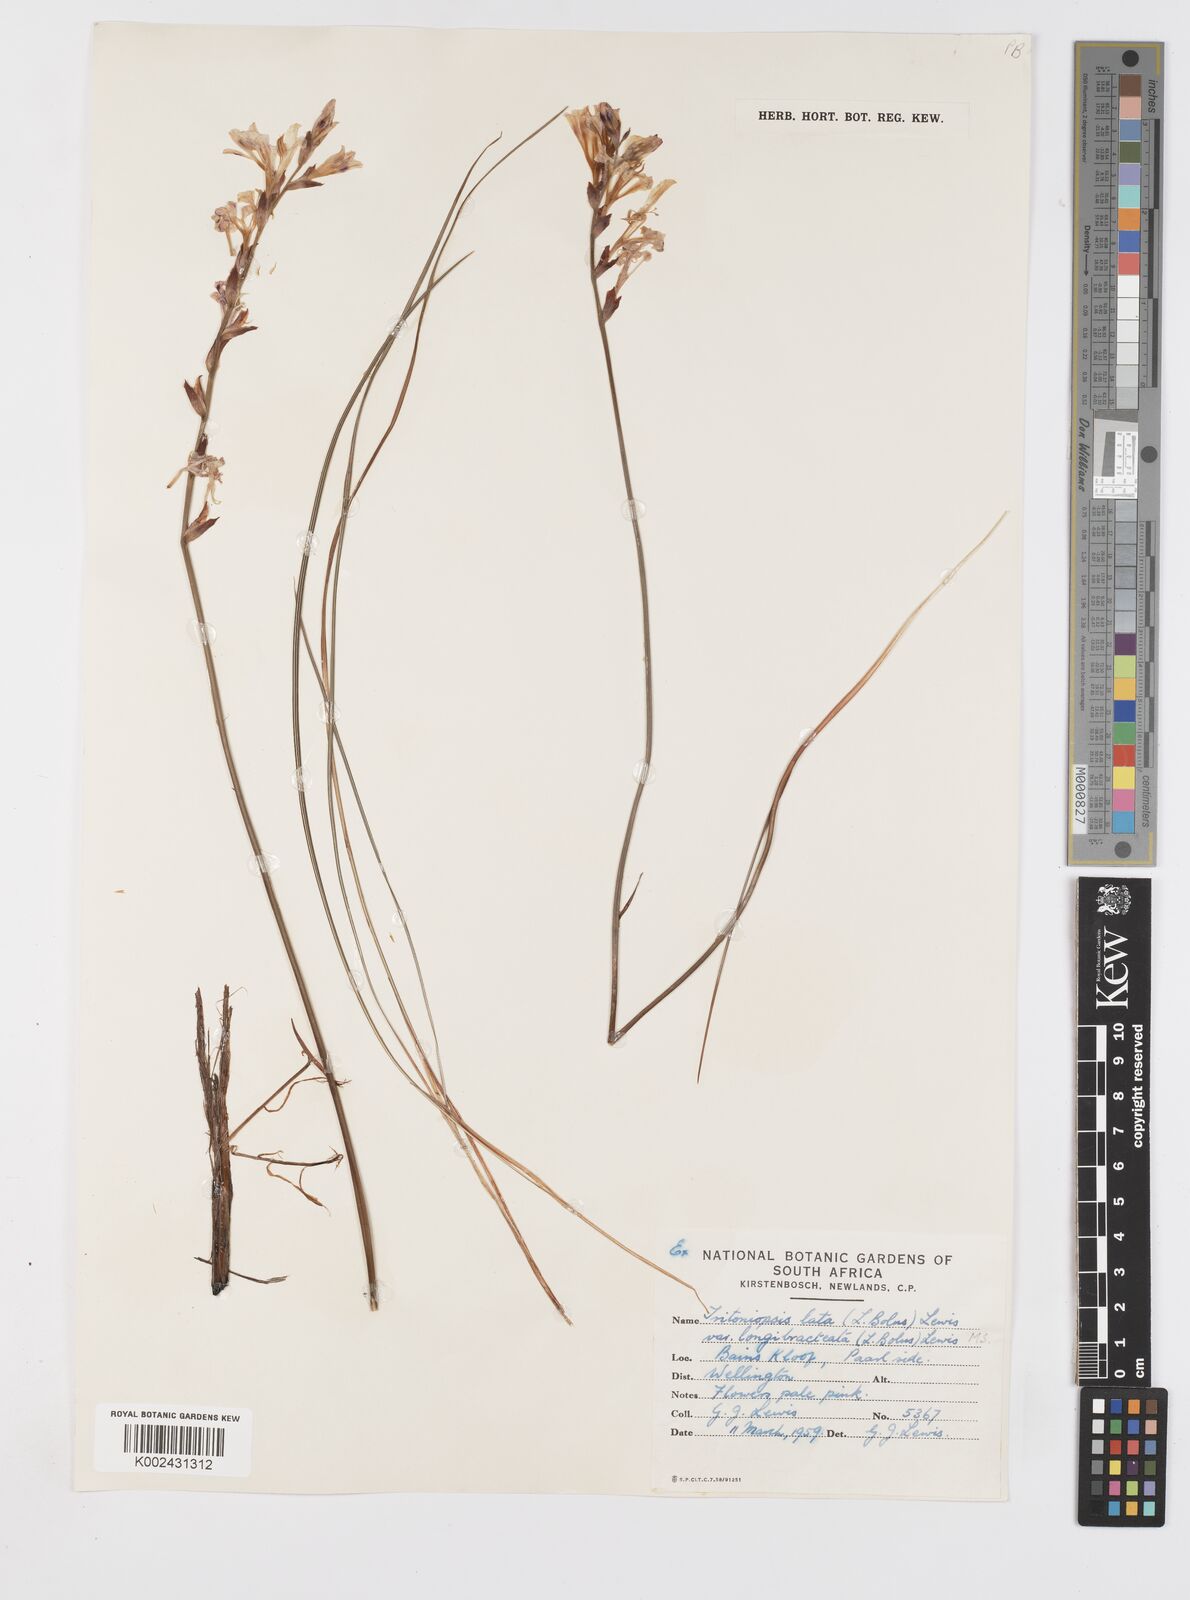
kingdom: Plantae
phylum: Tracheophyta
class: Liliopsida
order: Asparagales
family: Iridaceae
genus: Tritoniopsis
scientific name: Tritoniopsis lata
